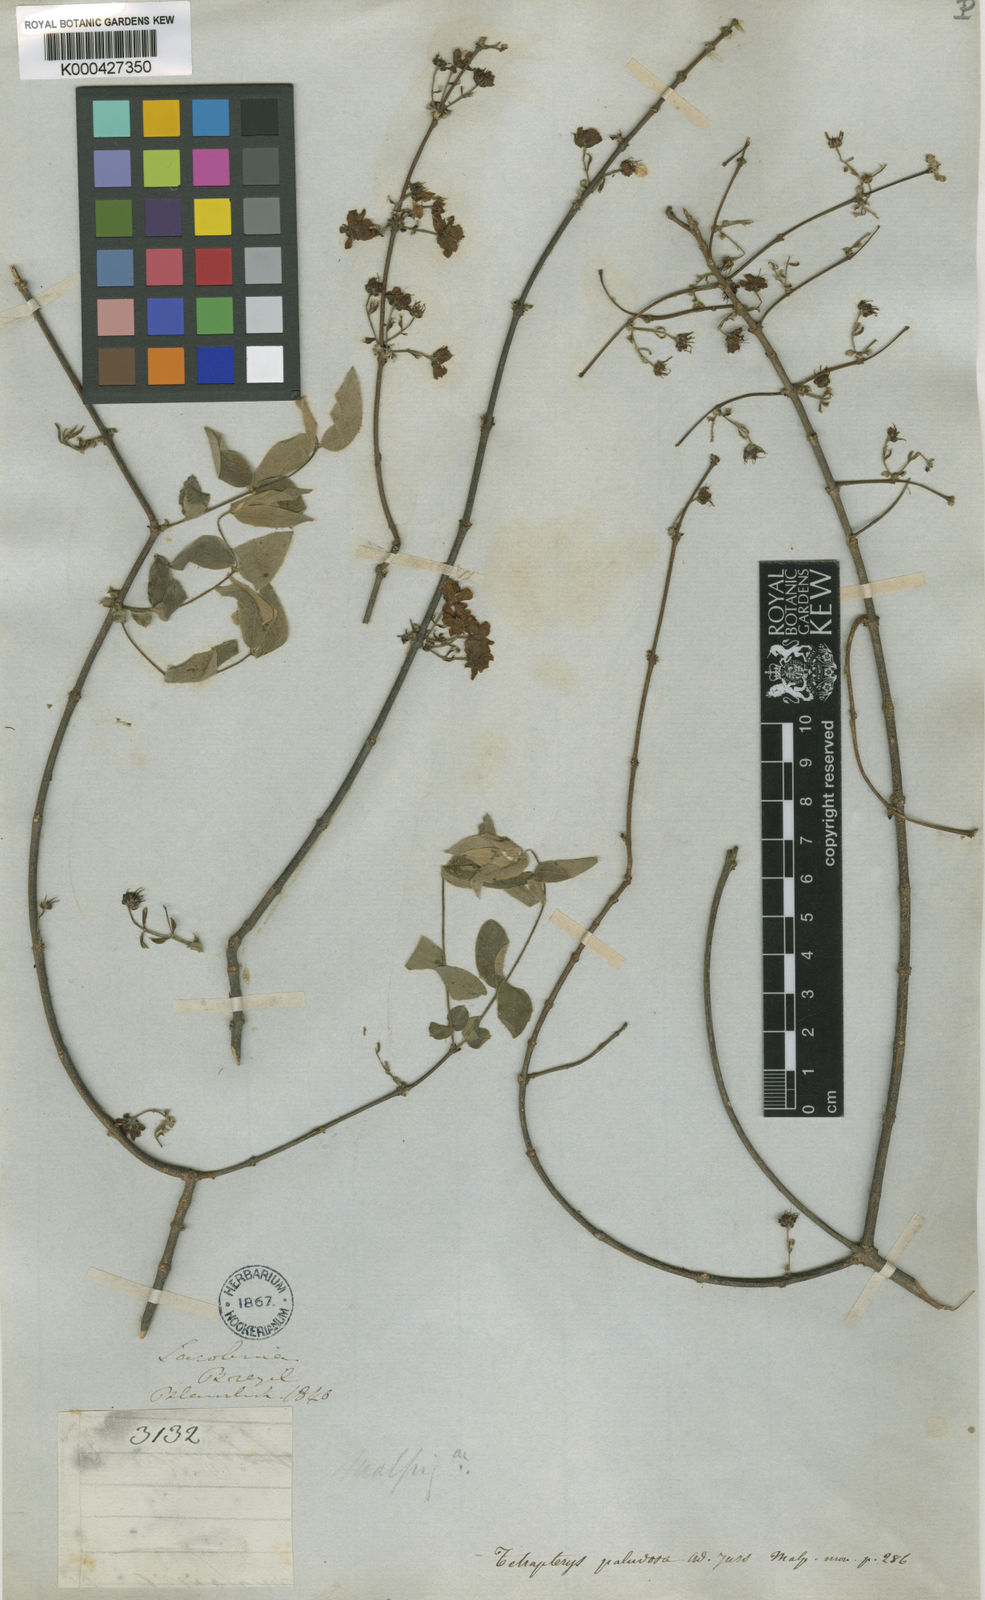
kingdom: Plantae
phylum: Tracheophyta
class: Magnoliopsida
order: Malpighiales
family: Malpighiaceae
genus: Glicophyllum
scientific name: Glicophyllum paludosum
